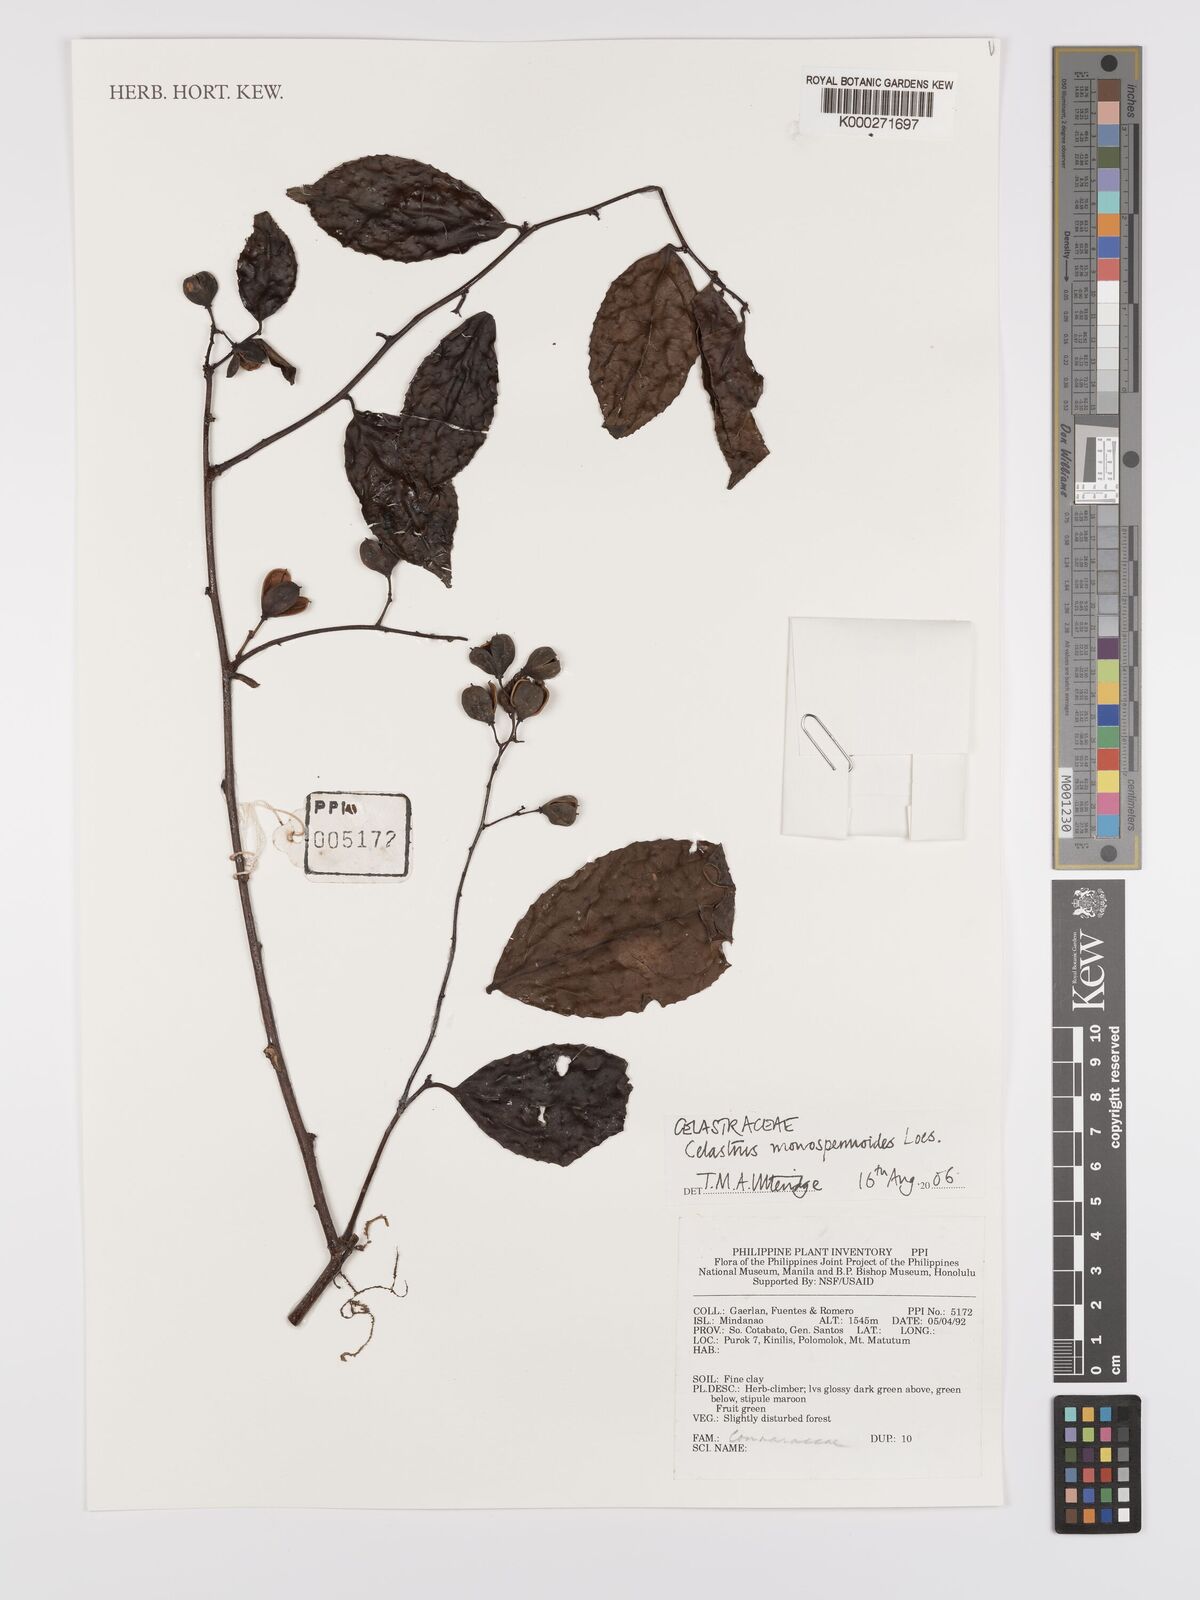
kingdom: Plantae
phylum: Tracheophyta
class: Magnoliopsida
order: Celastrales
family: Celastraceae
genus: Celastrus
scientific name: Celastrus monospermoides
